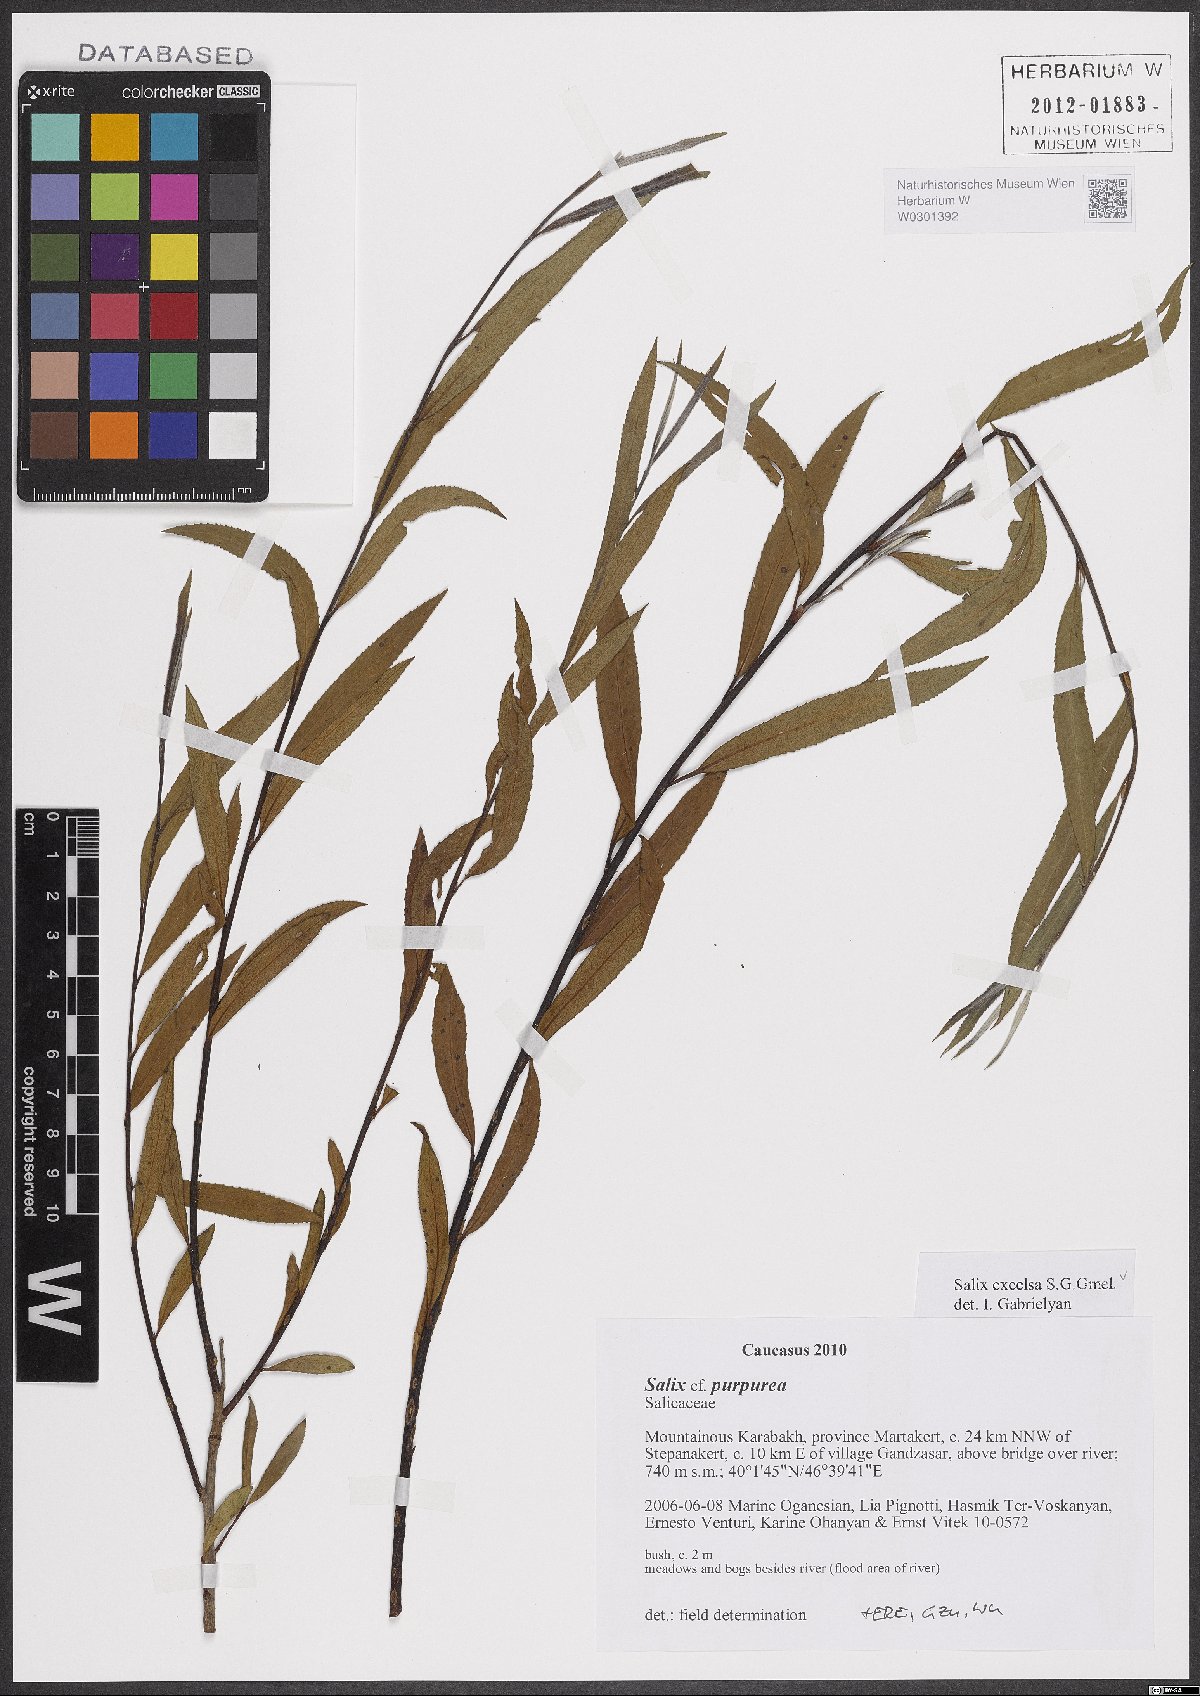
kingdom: Plantae
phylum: Tracheophyta
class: Magnoliopsida
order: Malpighiales
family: Salicaceae
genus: Salix
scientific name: Salix excelsa
